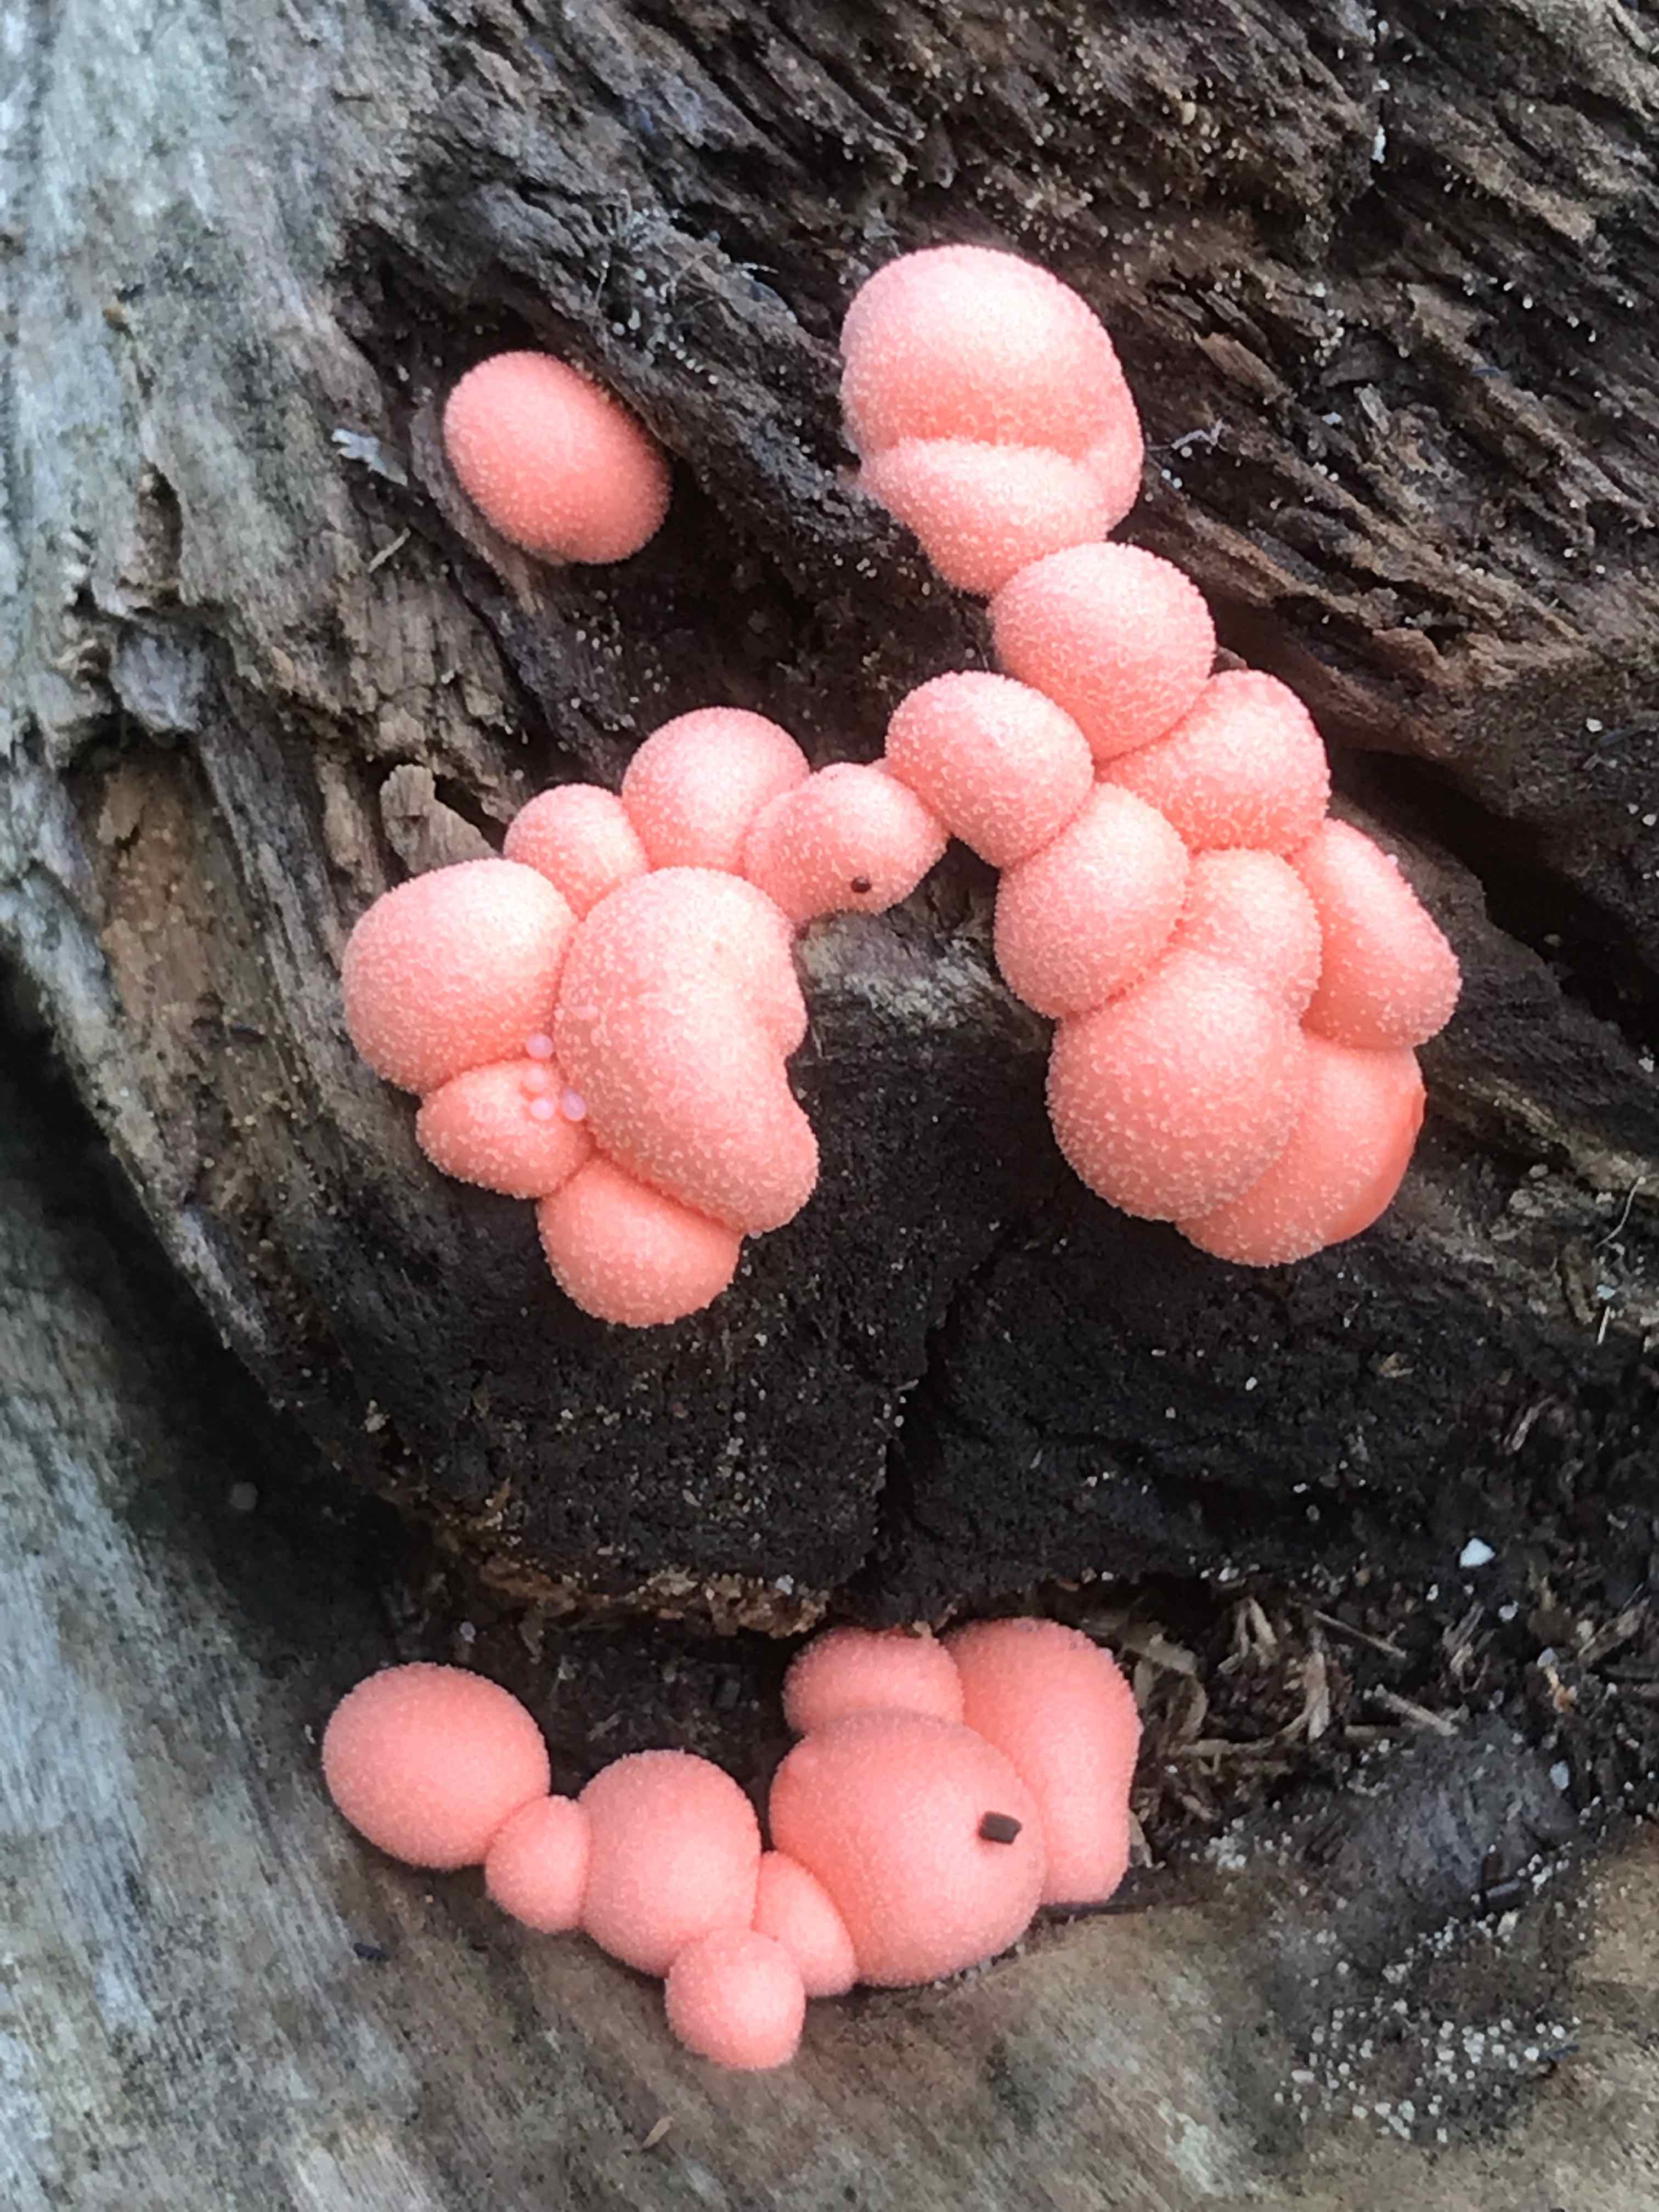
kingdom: Protozoa
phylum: Mycetozoa
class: Myxomycetes
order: Cribrariales
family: Tubiferaceae
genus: Lycogala
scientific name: Lycogala epidendrum
